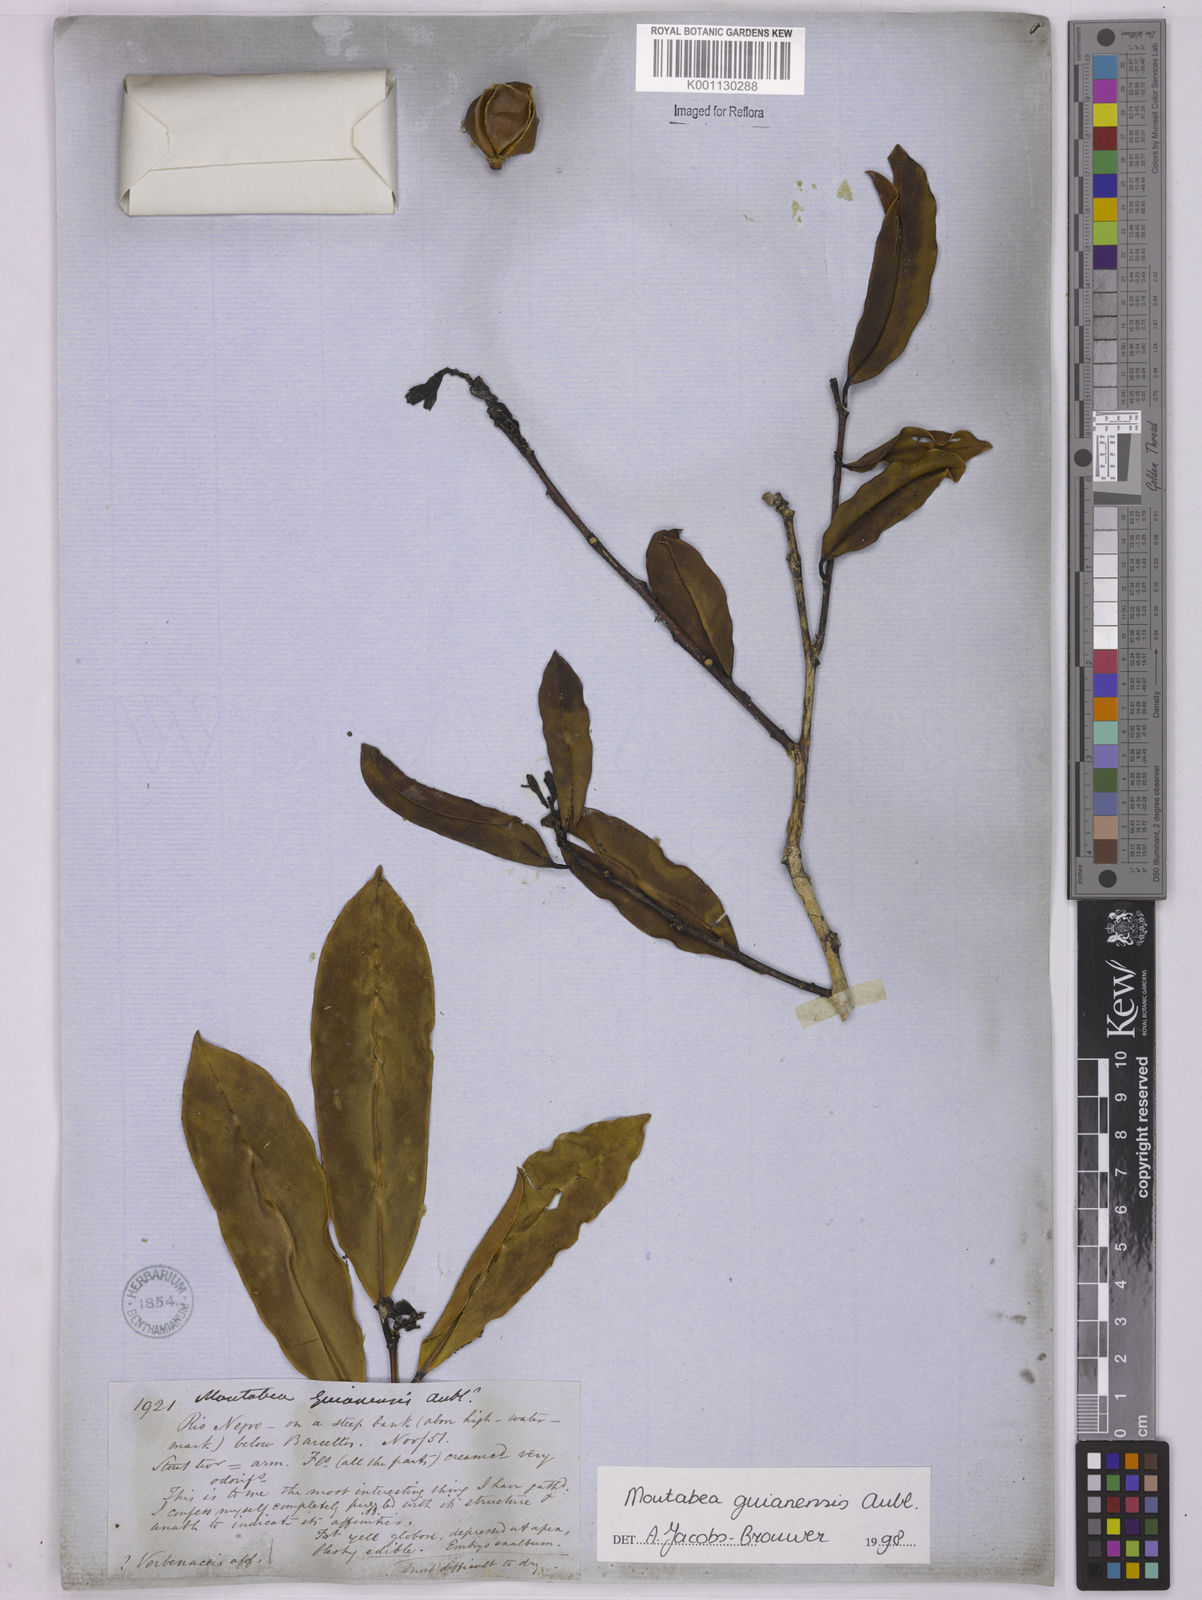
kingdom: Plantae
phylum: Tracheophyta
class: Magnoliopsida
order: Fabales
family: Polygalaceae
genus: Moutabea
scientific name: Moutabea guianensis
